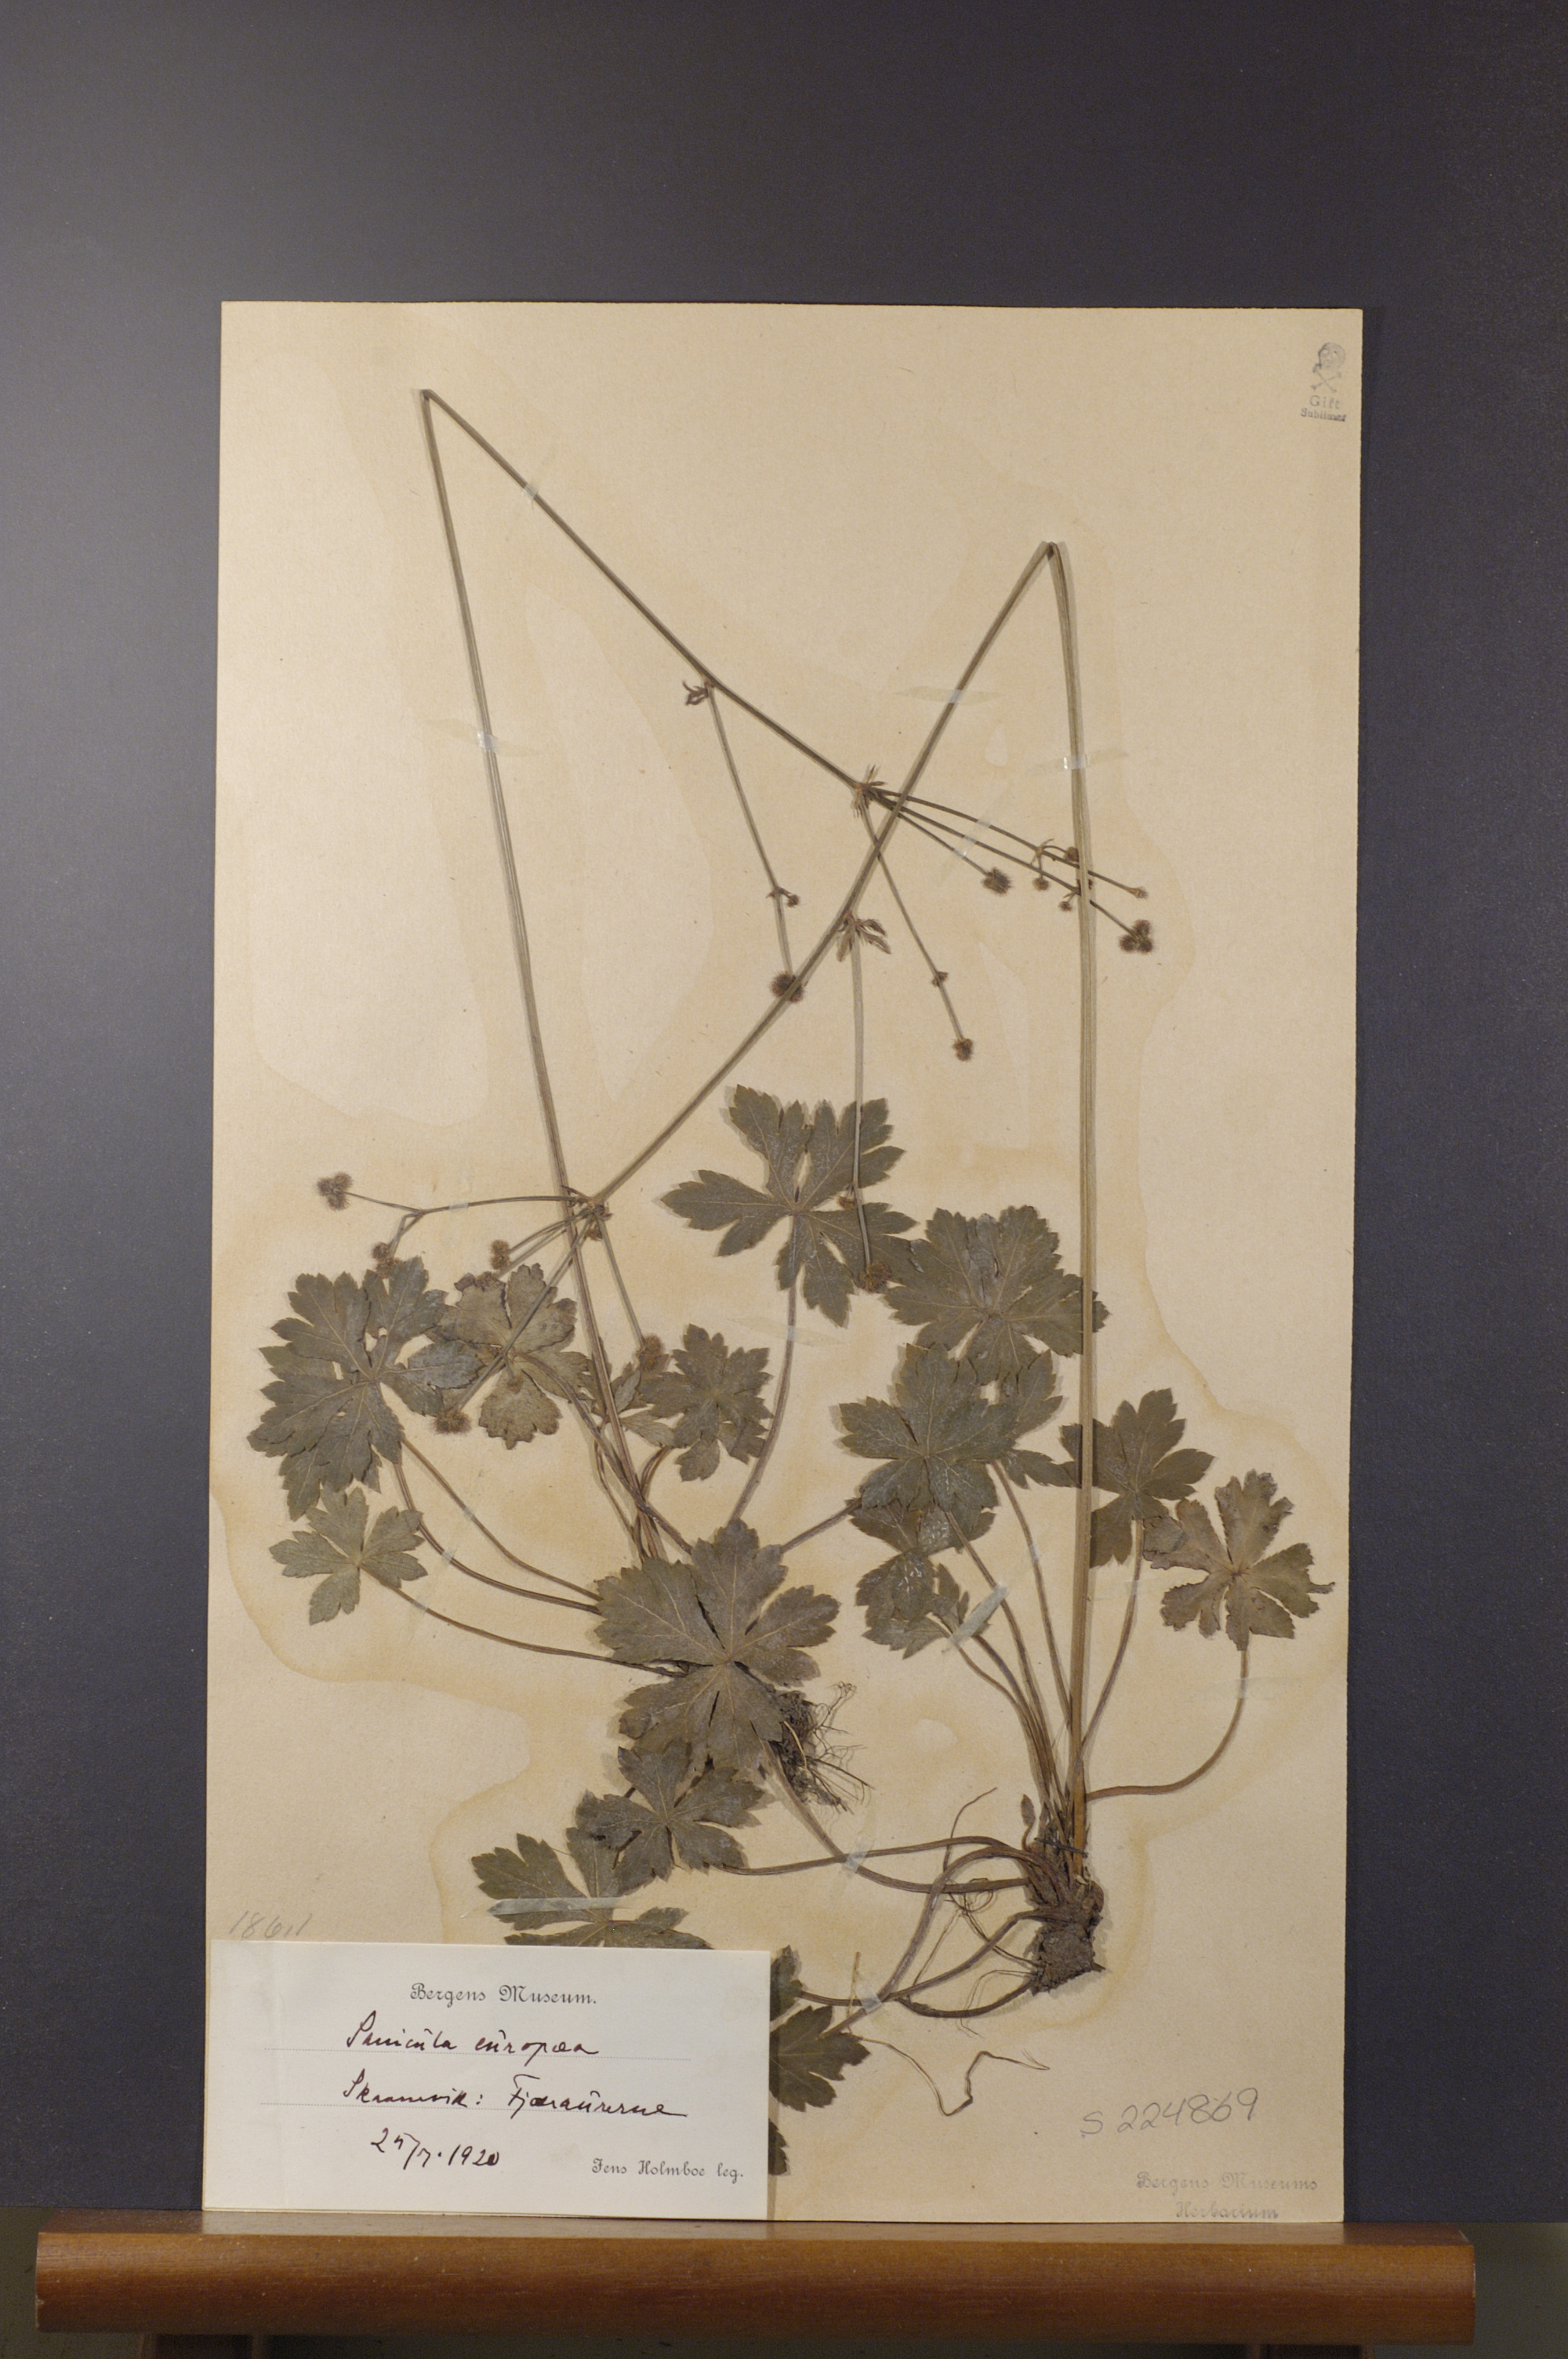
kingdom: Plantae
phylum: Tracheophyta
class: Magnoliopsida
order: Apiales
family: Apiaceae
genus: Sanicula
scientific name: Sanicula europaea
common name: Sanicle
